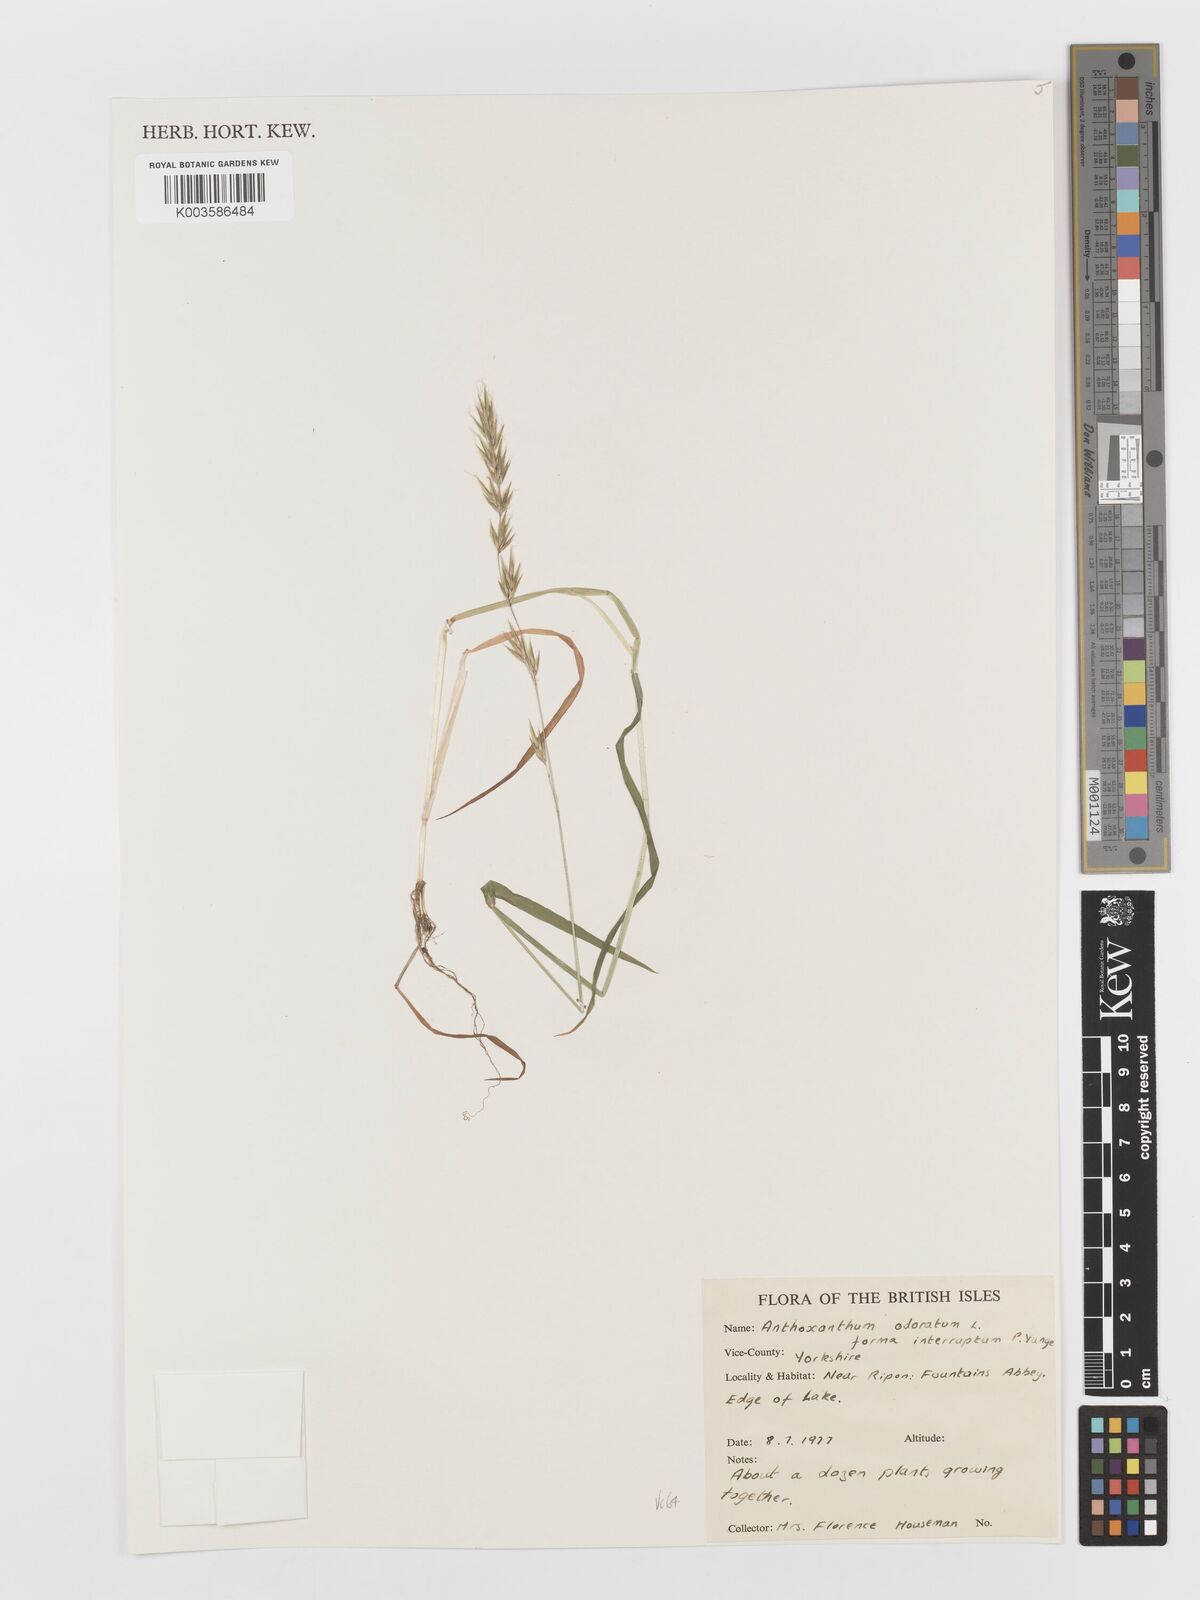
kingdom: Plantae
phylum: Tracheophyta
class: Liliopsida
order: Poales
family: Poaceae
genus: Anthoxanthum
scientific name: Anthoxanthum odoratum
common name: Sweet vernalgrass
